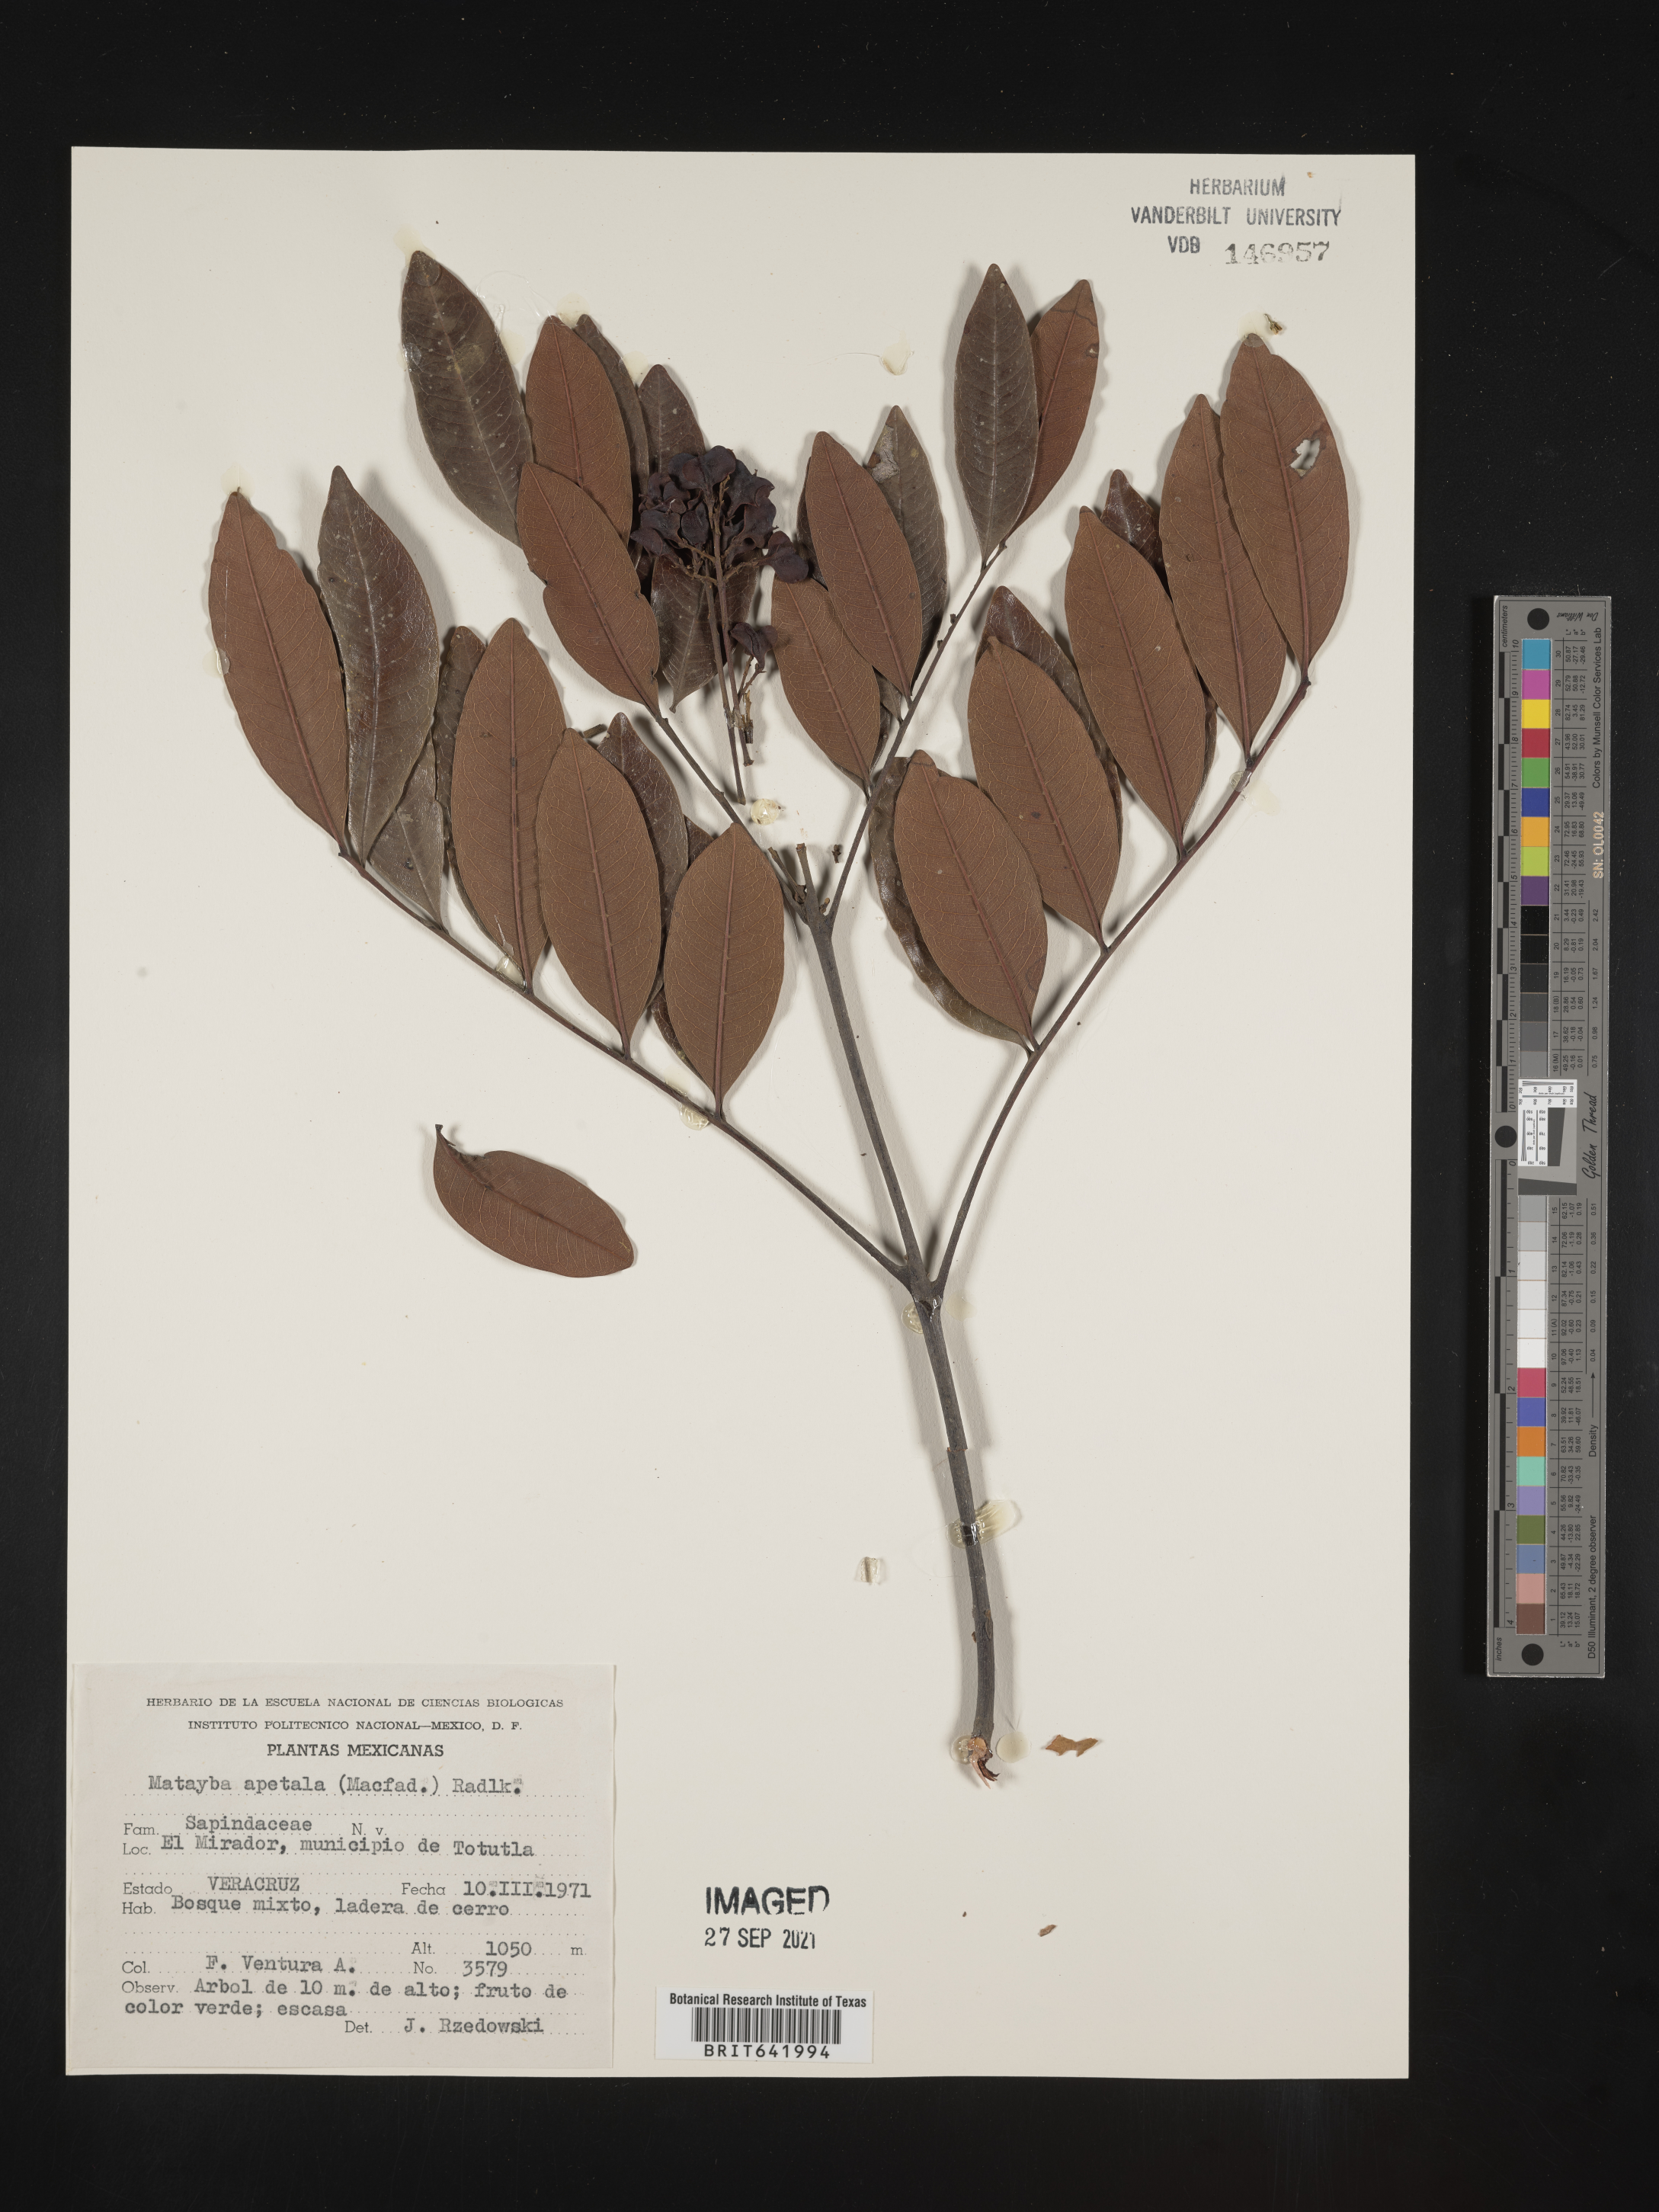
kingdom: Plantae
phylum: Tracheophyta
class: Magnoliopsida
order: Sapindales
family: Sapindaceae
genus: Matayba
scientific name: Matayba
